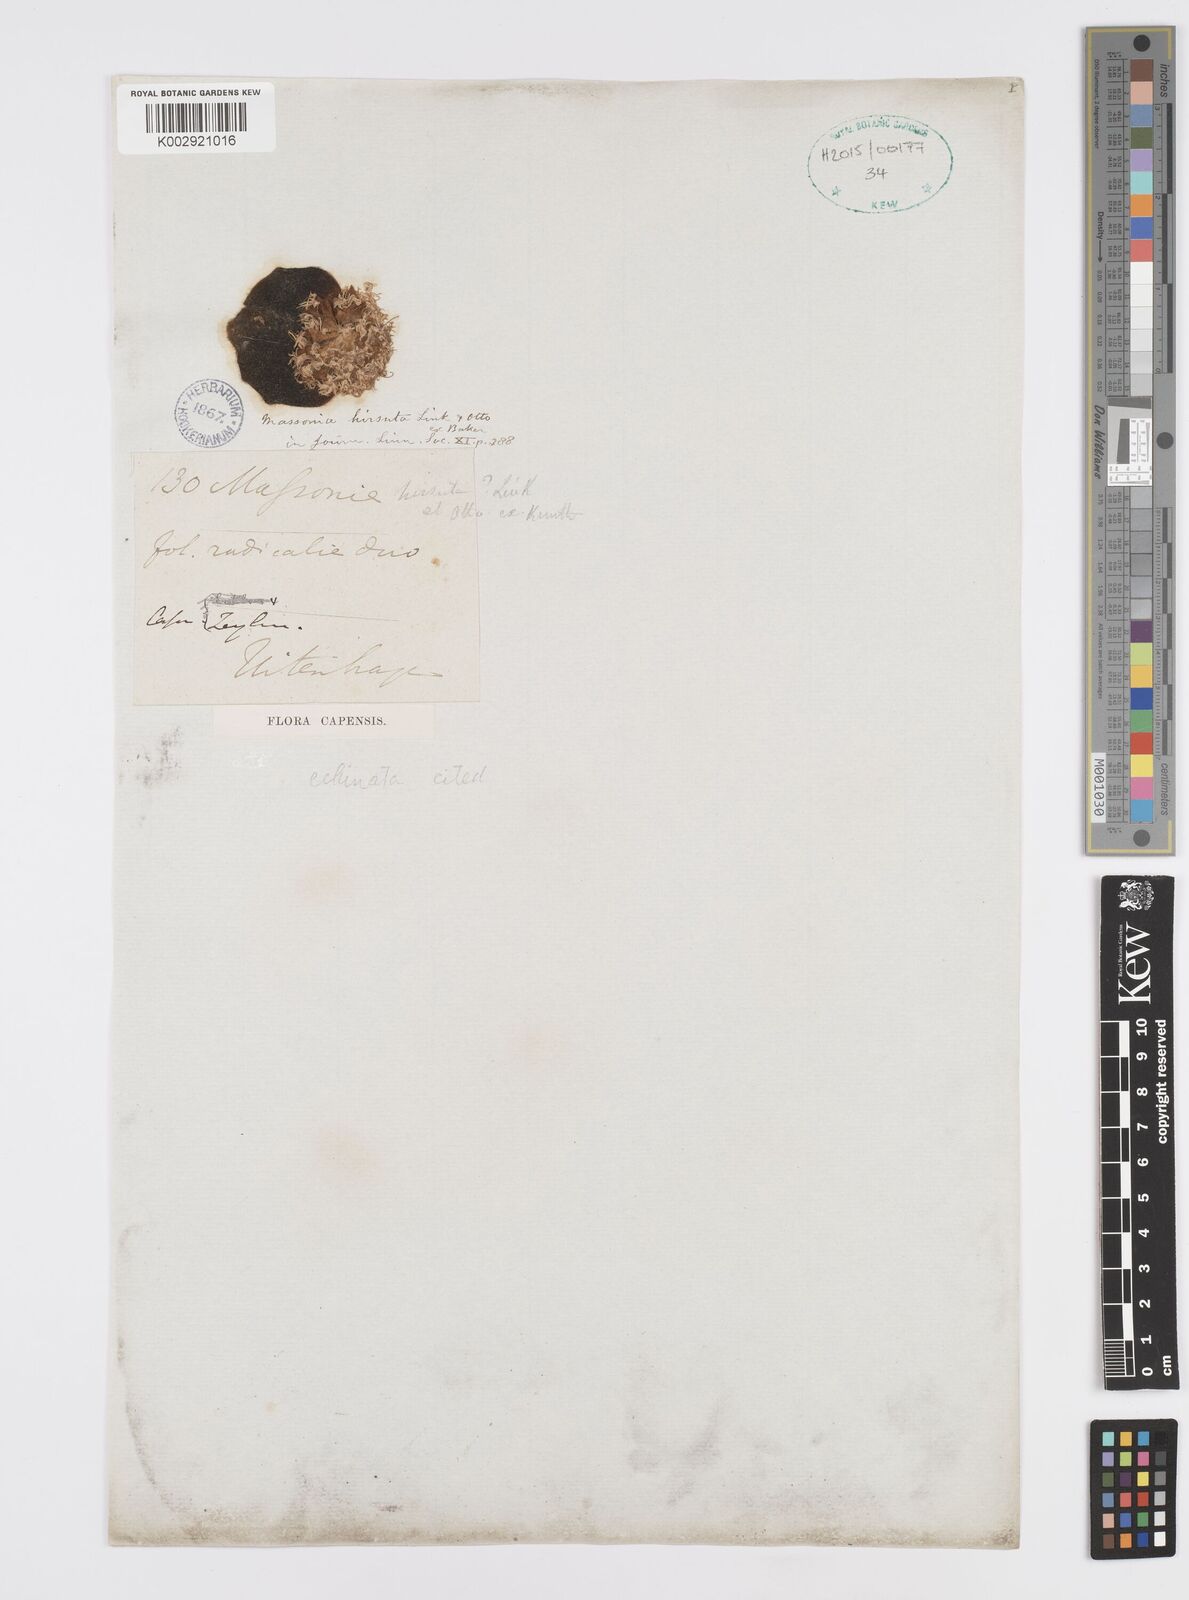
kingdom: Plantae
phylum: Tracheophyta
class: Liliopsida
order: Asparagales
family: Asparagaceae
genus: Massonia
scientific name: Massonia echinata
